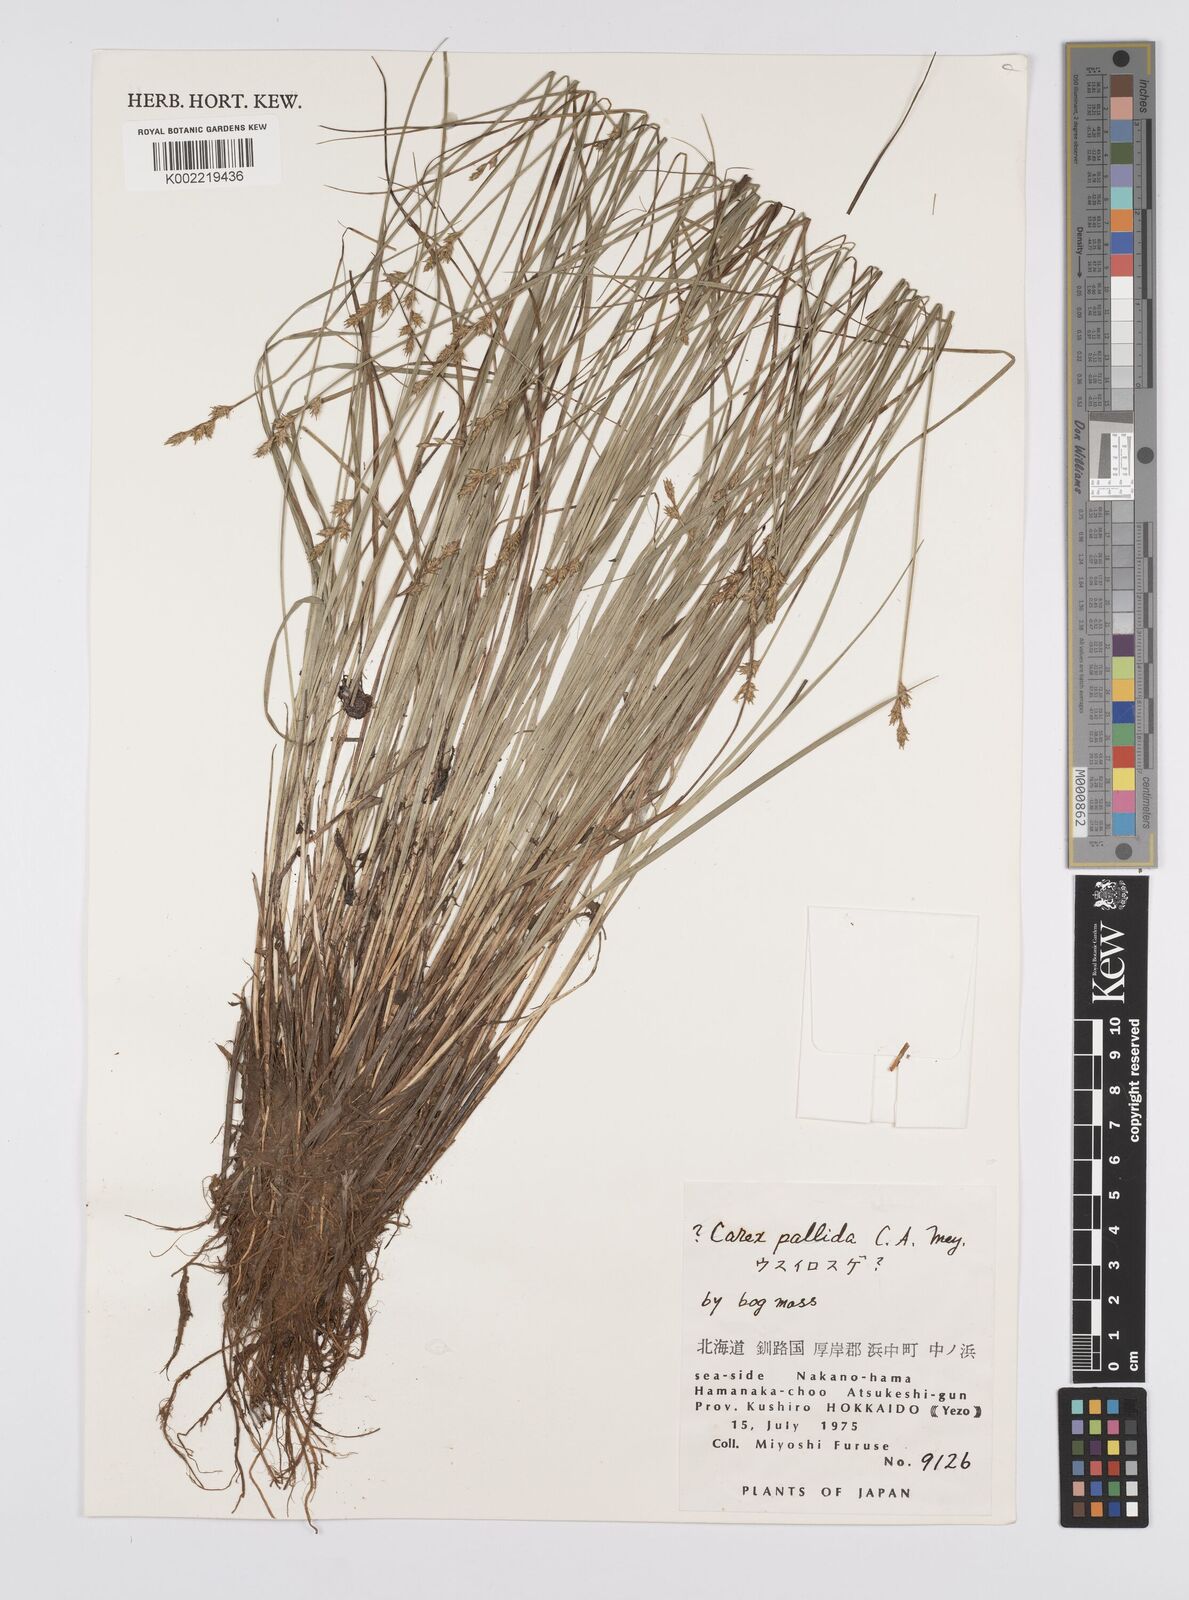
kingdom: Plantae
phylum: Tracheophyta
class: Liliopsida
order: Poales
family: Cyperaceae
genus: Carex
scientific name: Carex accrescens
